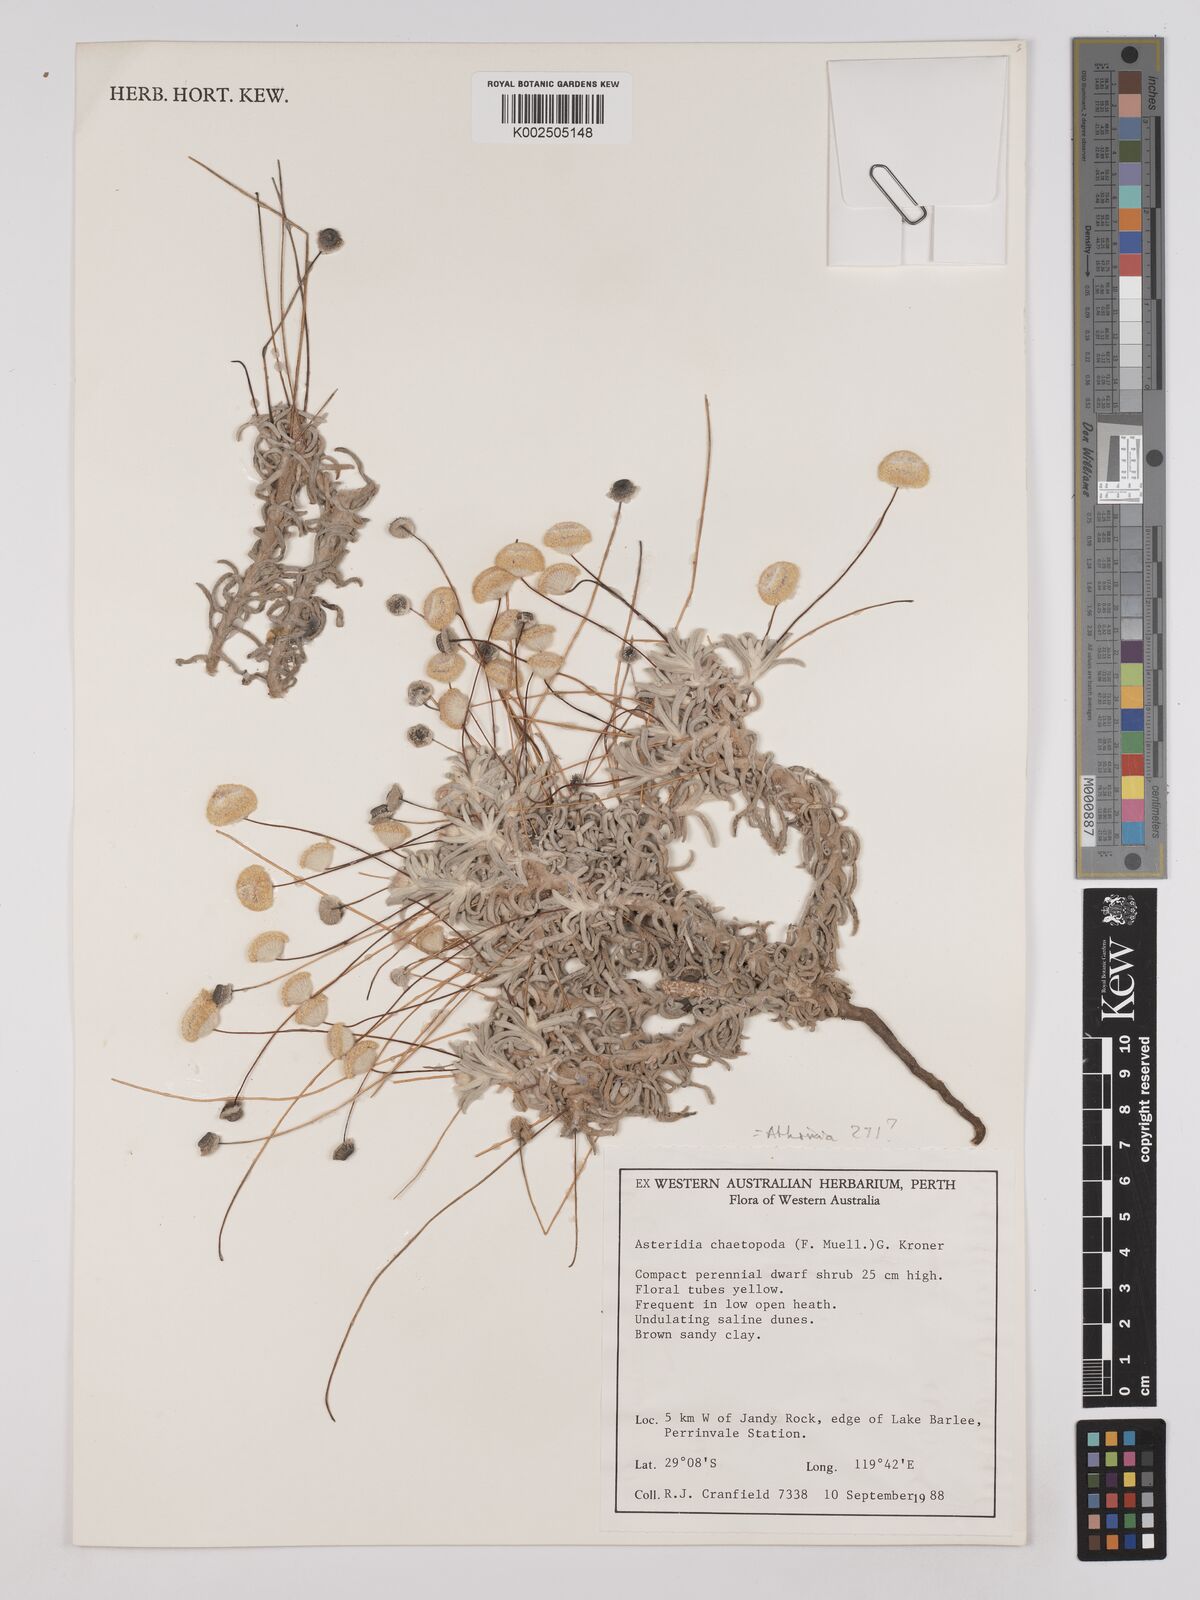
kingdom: Plantae
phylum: Tracheophyta
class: Magnoliopsida
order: Asterales
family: Asteraceae
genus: Asteridea
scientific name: Asteridea chaetopoda
